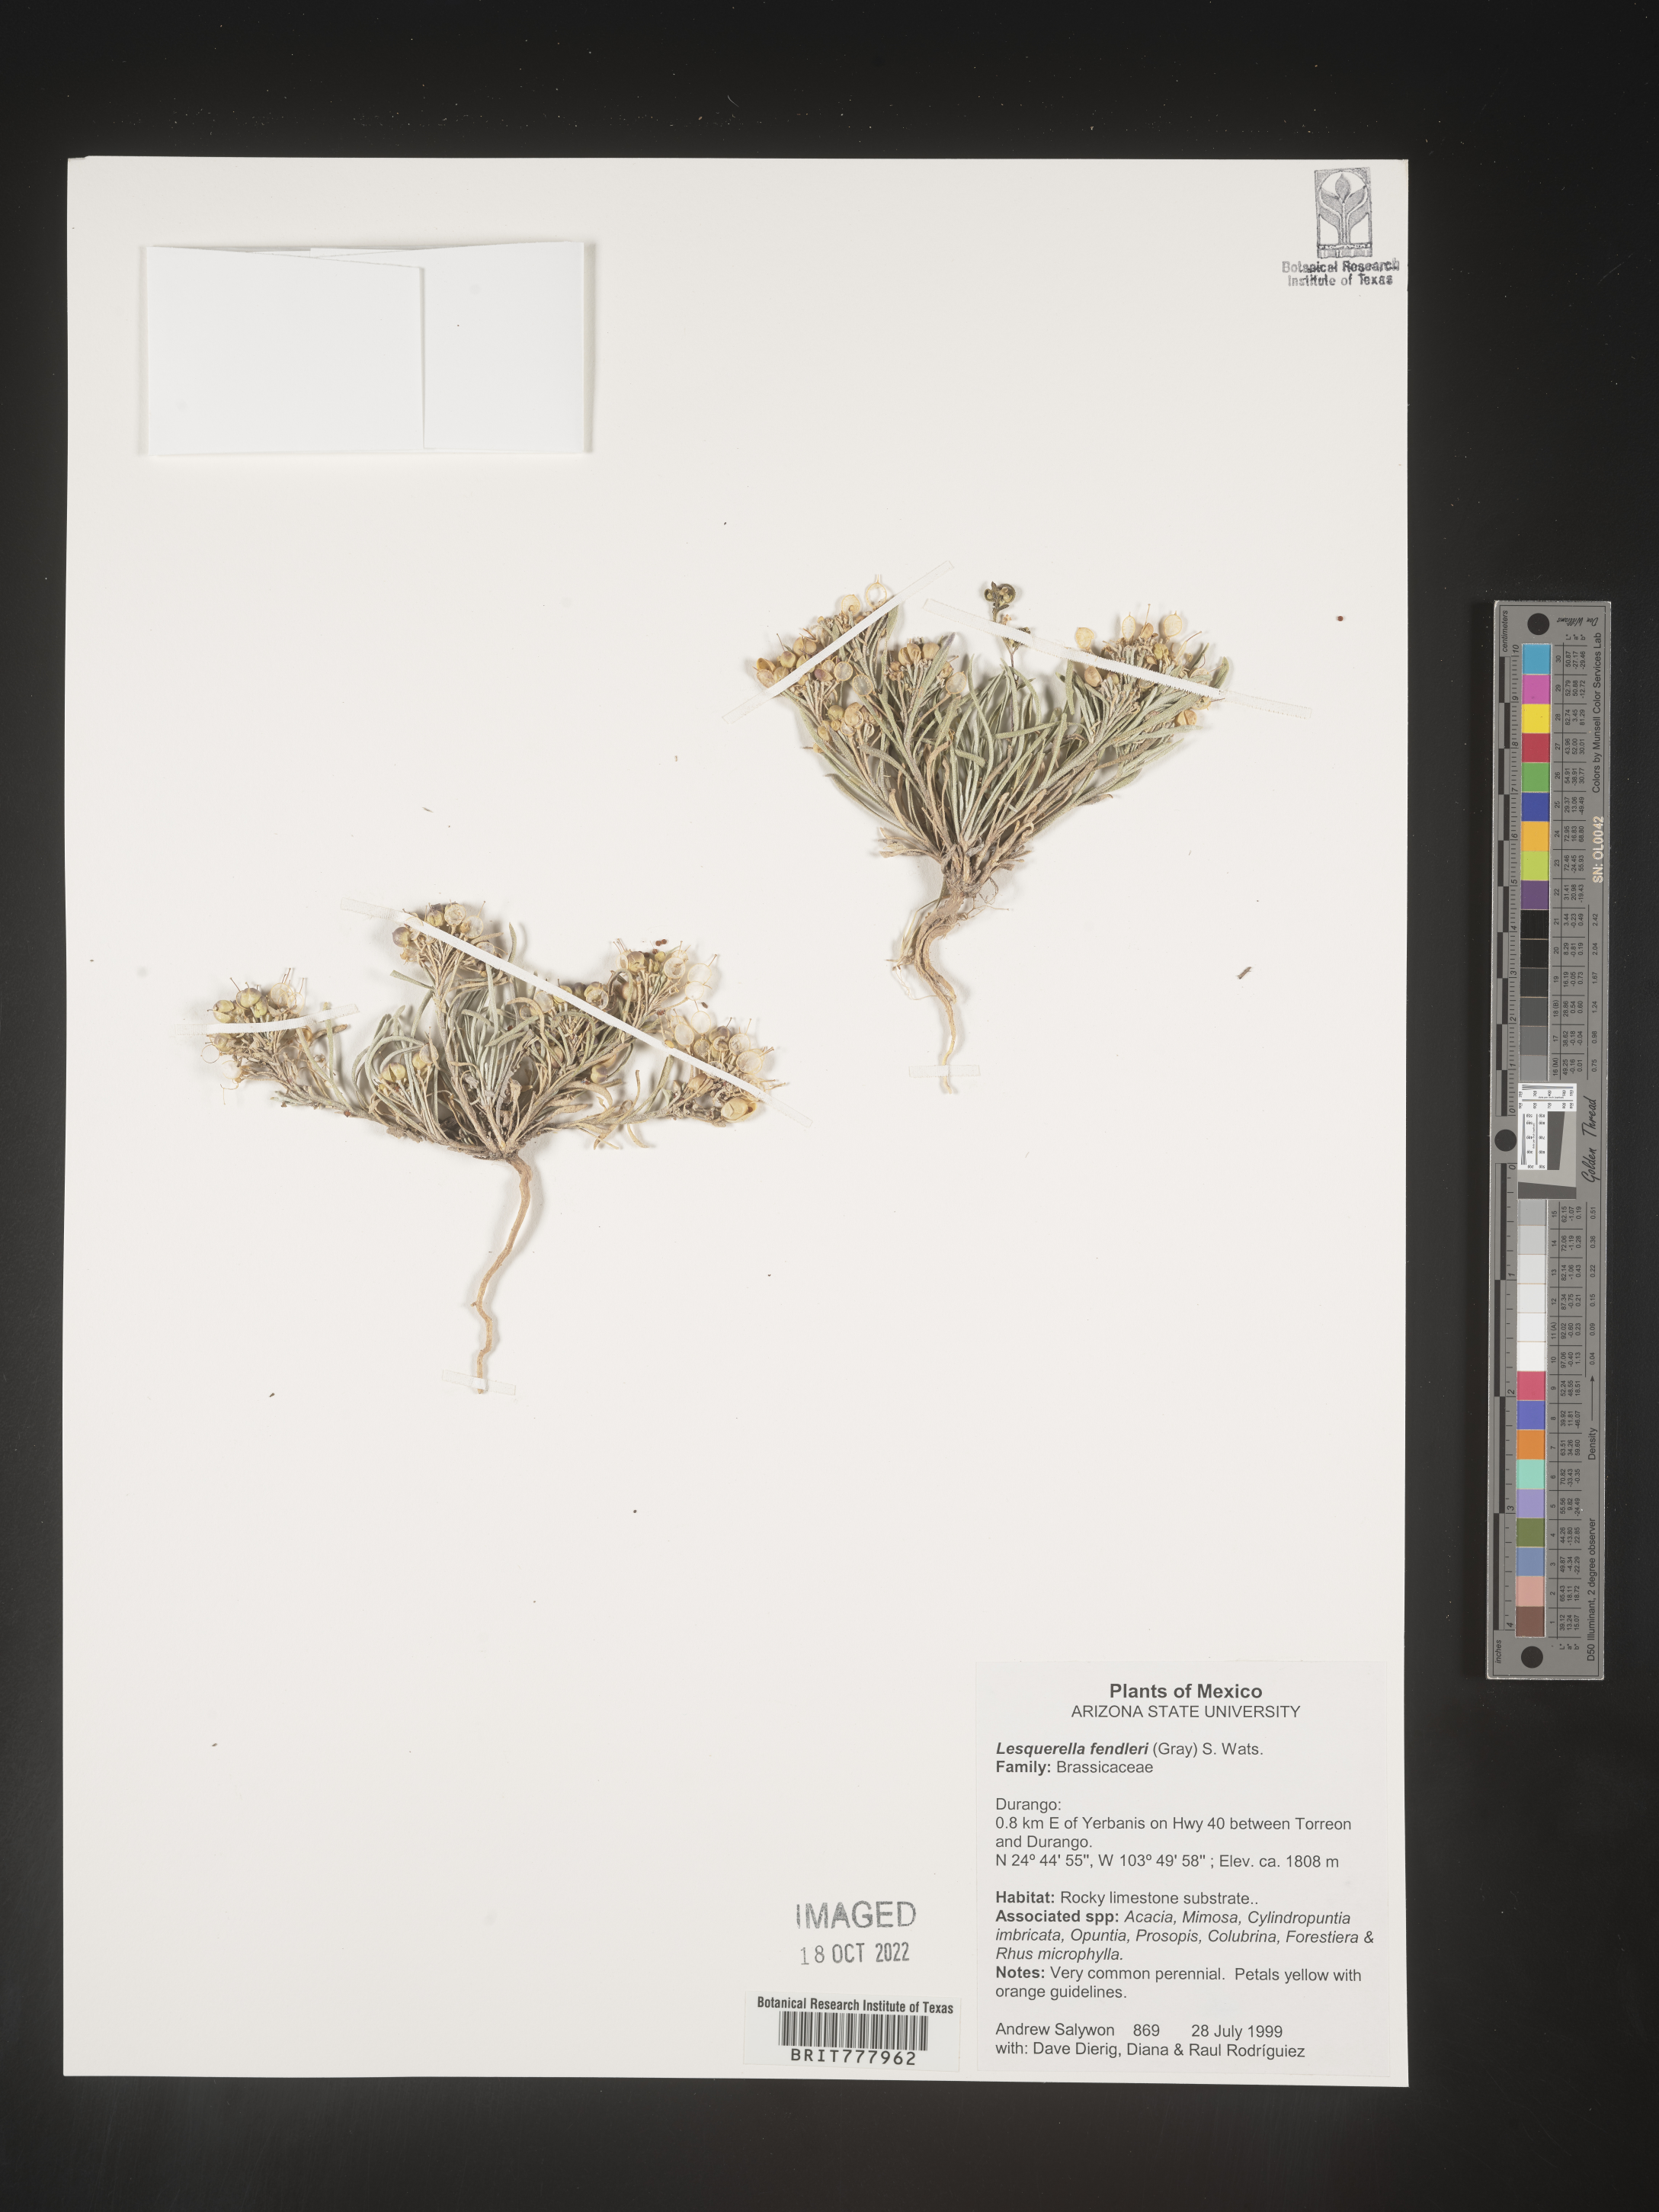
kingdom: Chromista
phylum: Cercozoa
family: Psammonobiotidae
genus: Lesquerella
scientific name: Lesquerella
